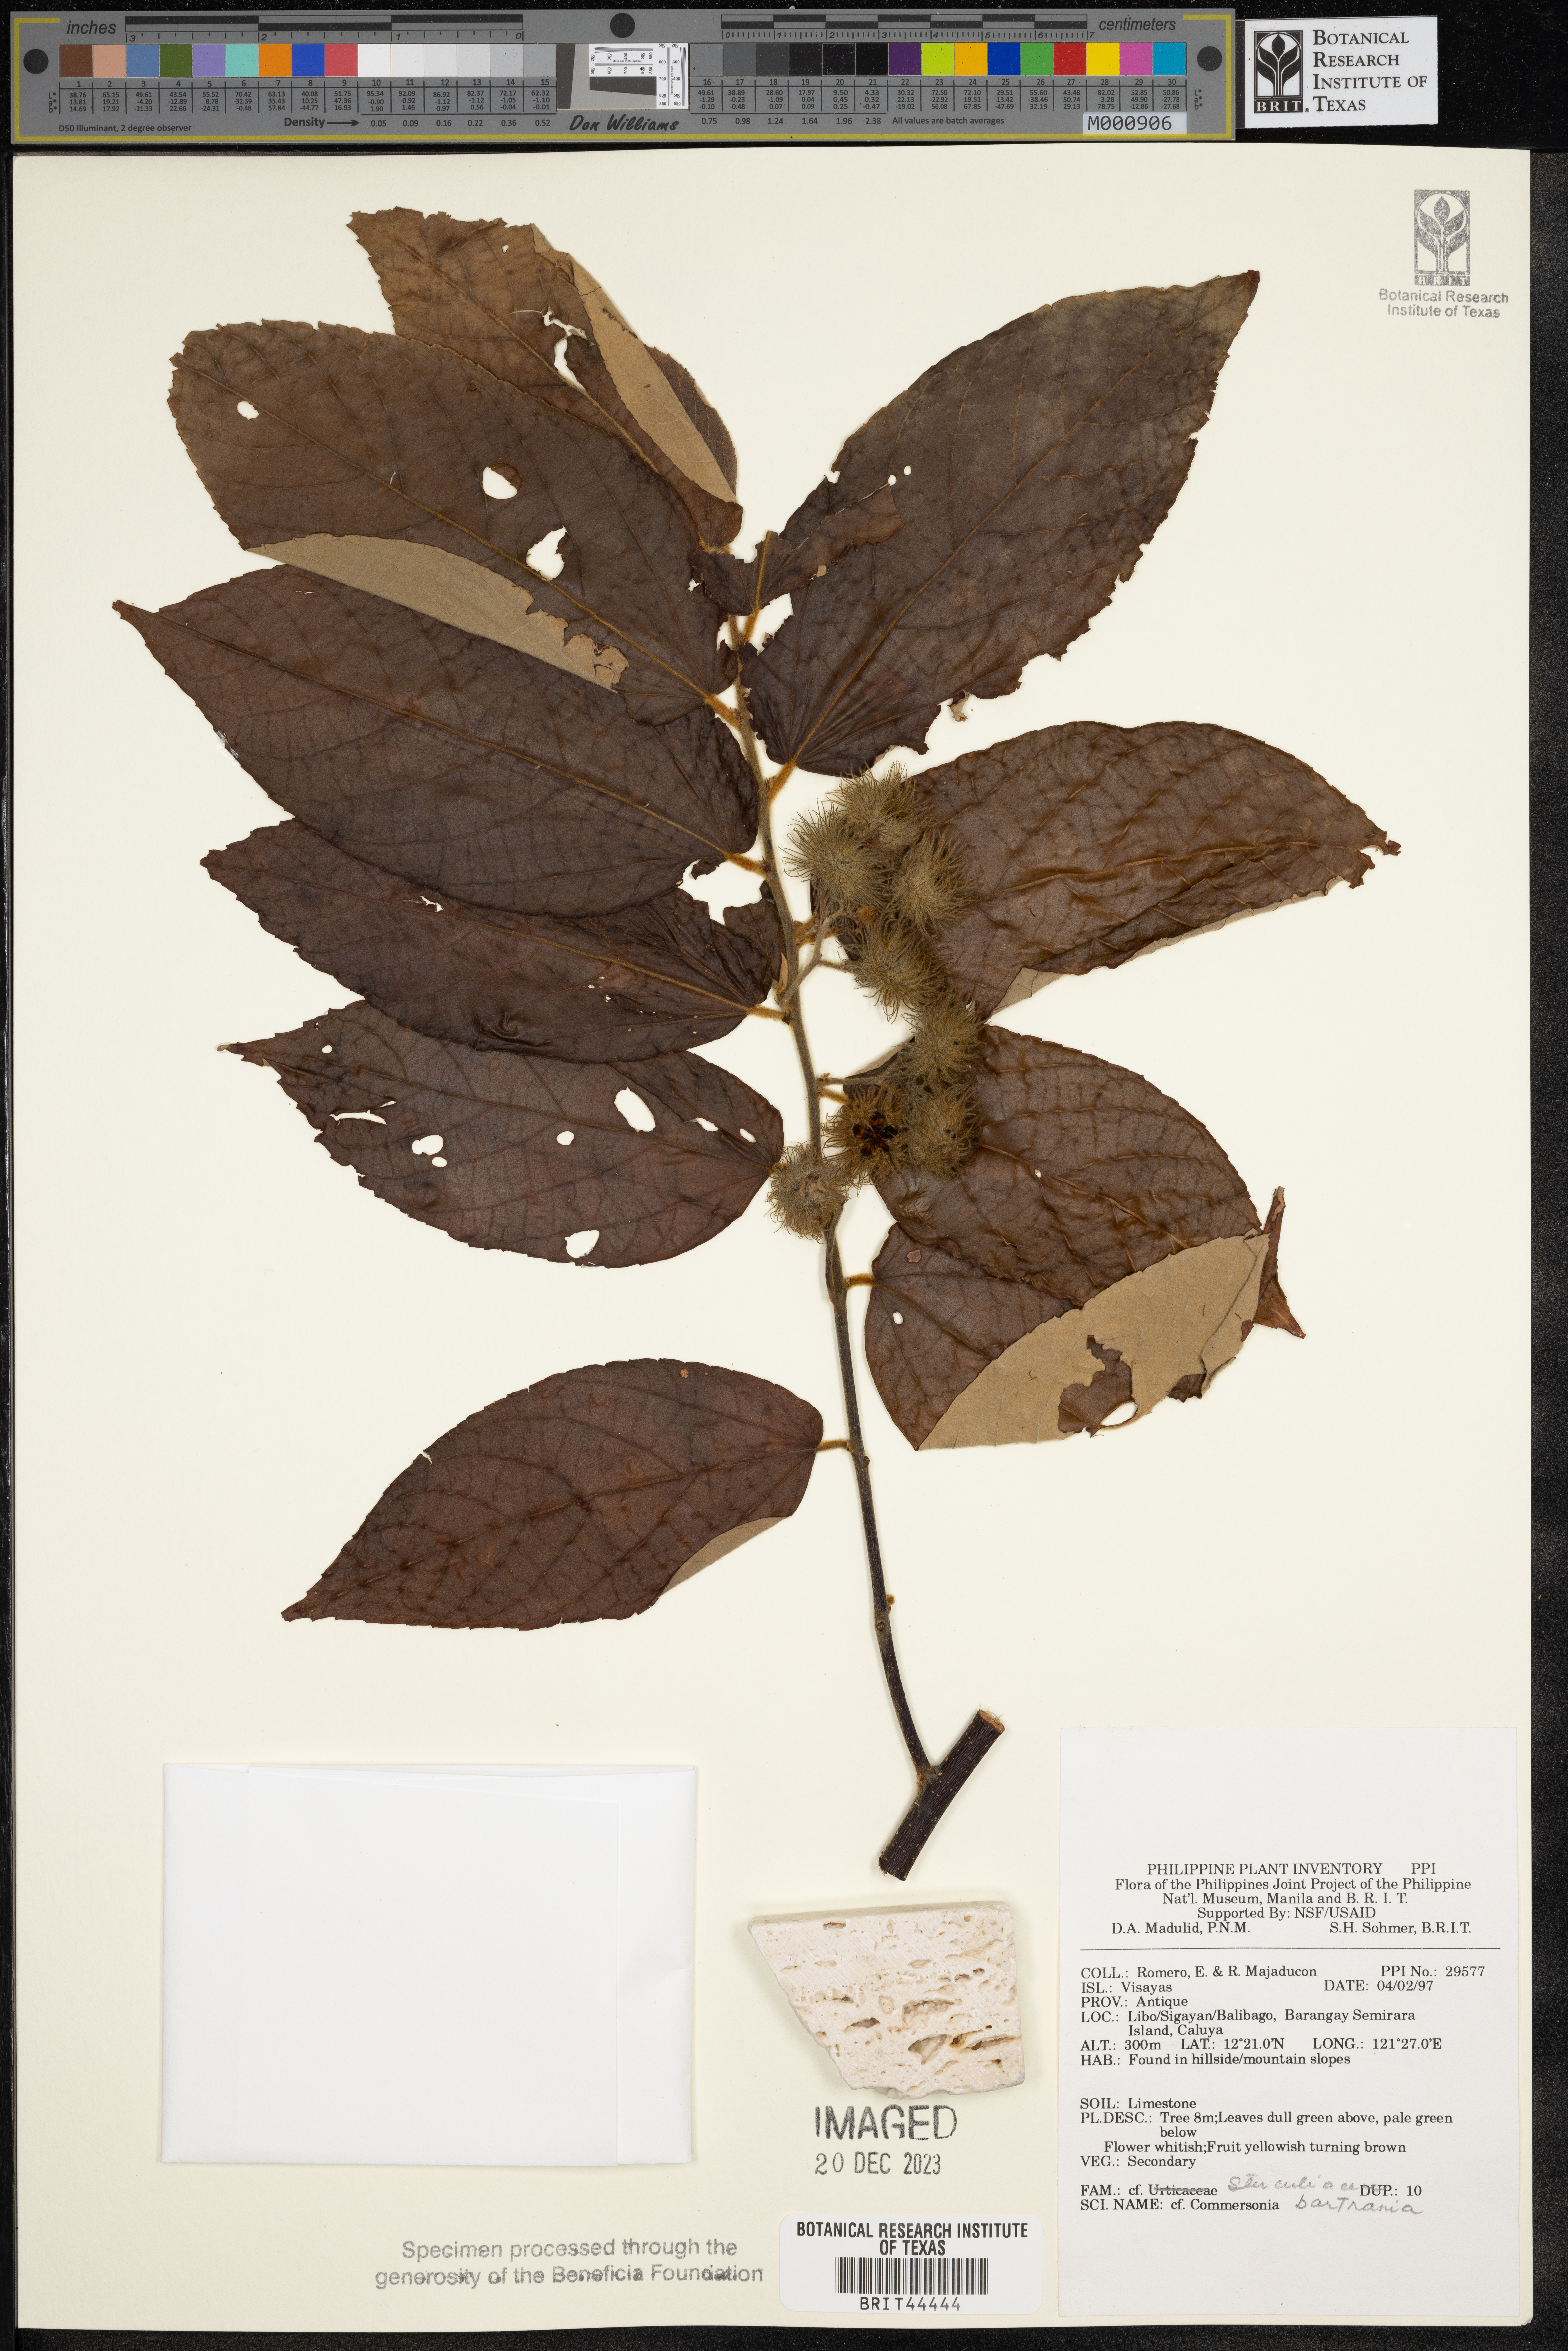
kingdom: Plantae
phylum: Tracheophyta
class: Magnoliopsida
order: Malvales
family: Malvaceae
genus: Commersonia
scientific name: Commersonia bartramia
